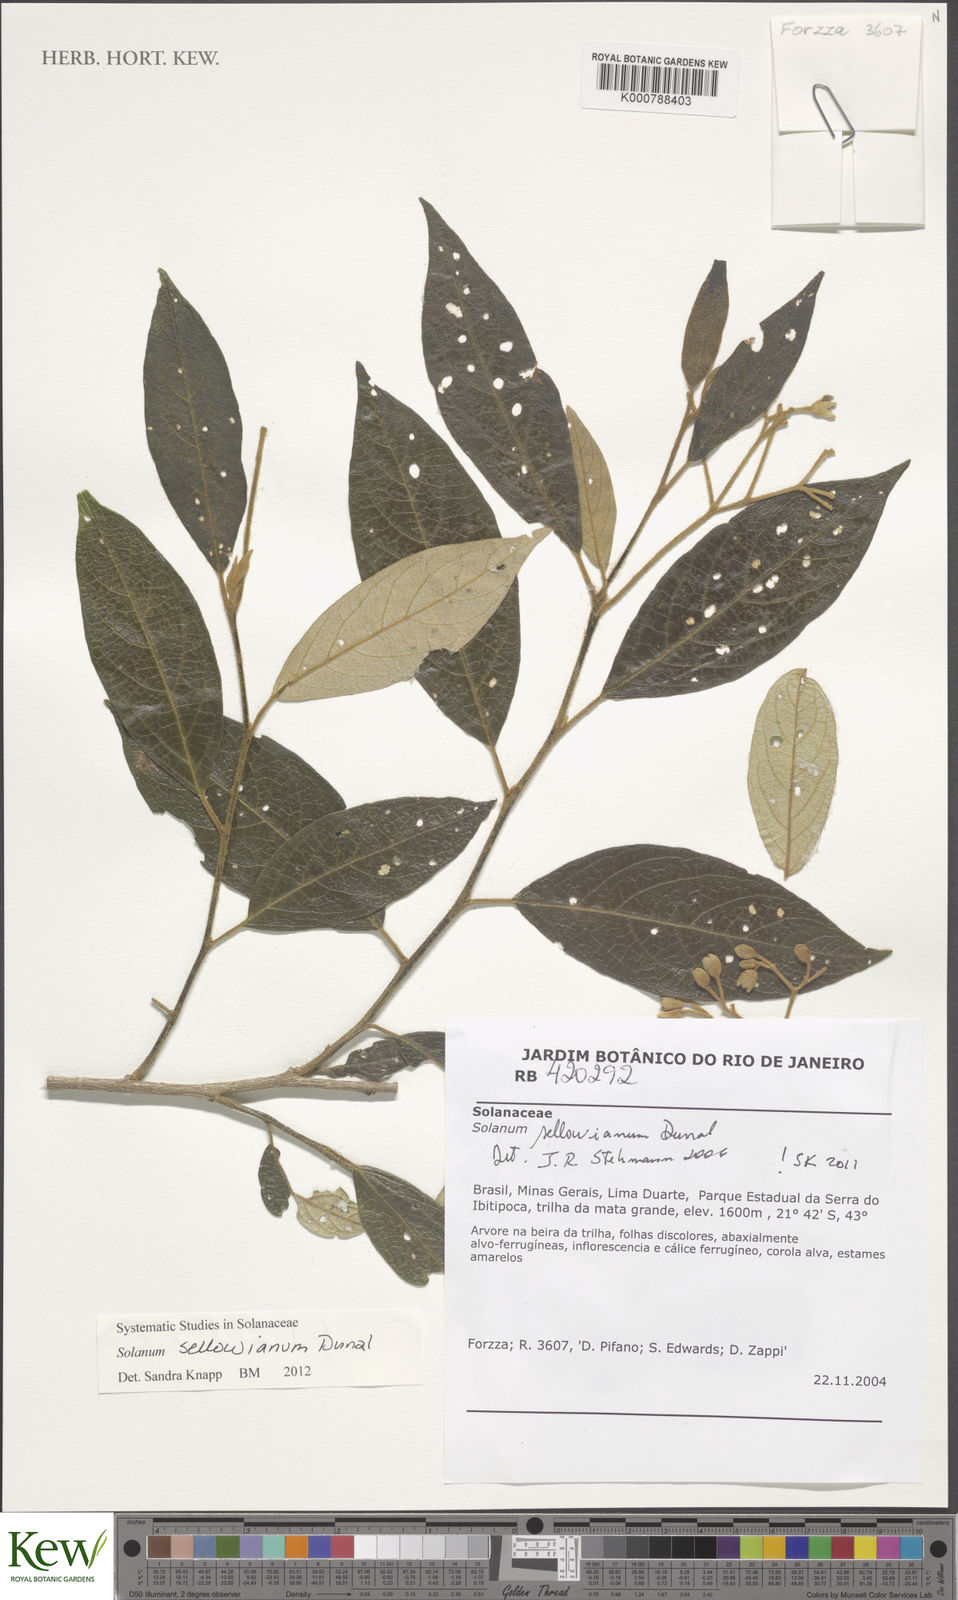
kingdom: Plantae
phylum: Tracheophyta
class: Magnoliopsida
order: Solanales
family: Solanaceae
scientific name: Solanaceae
